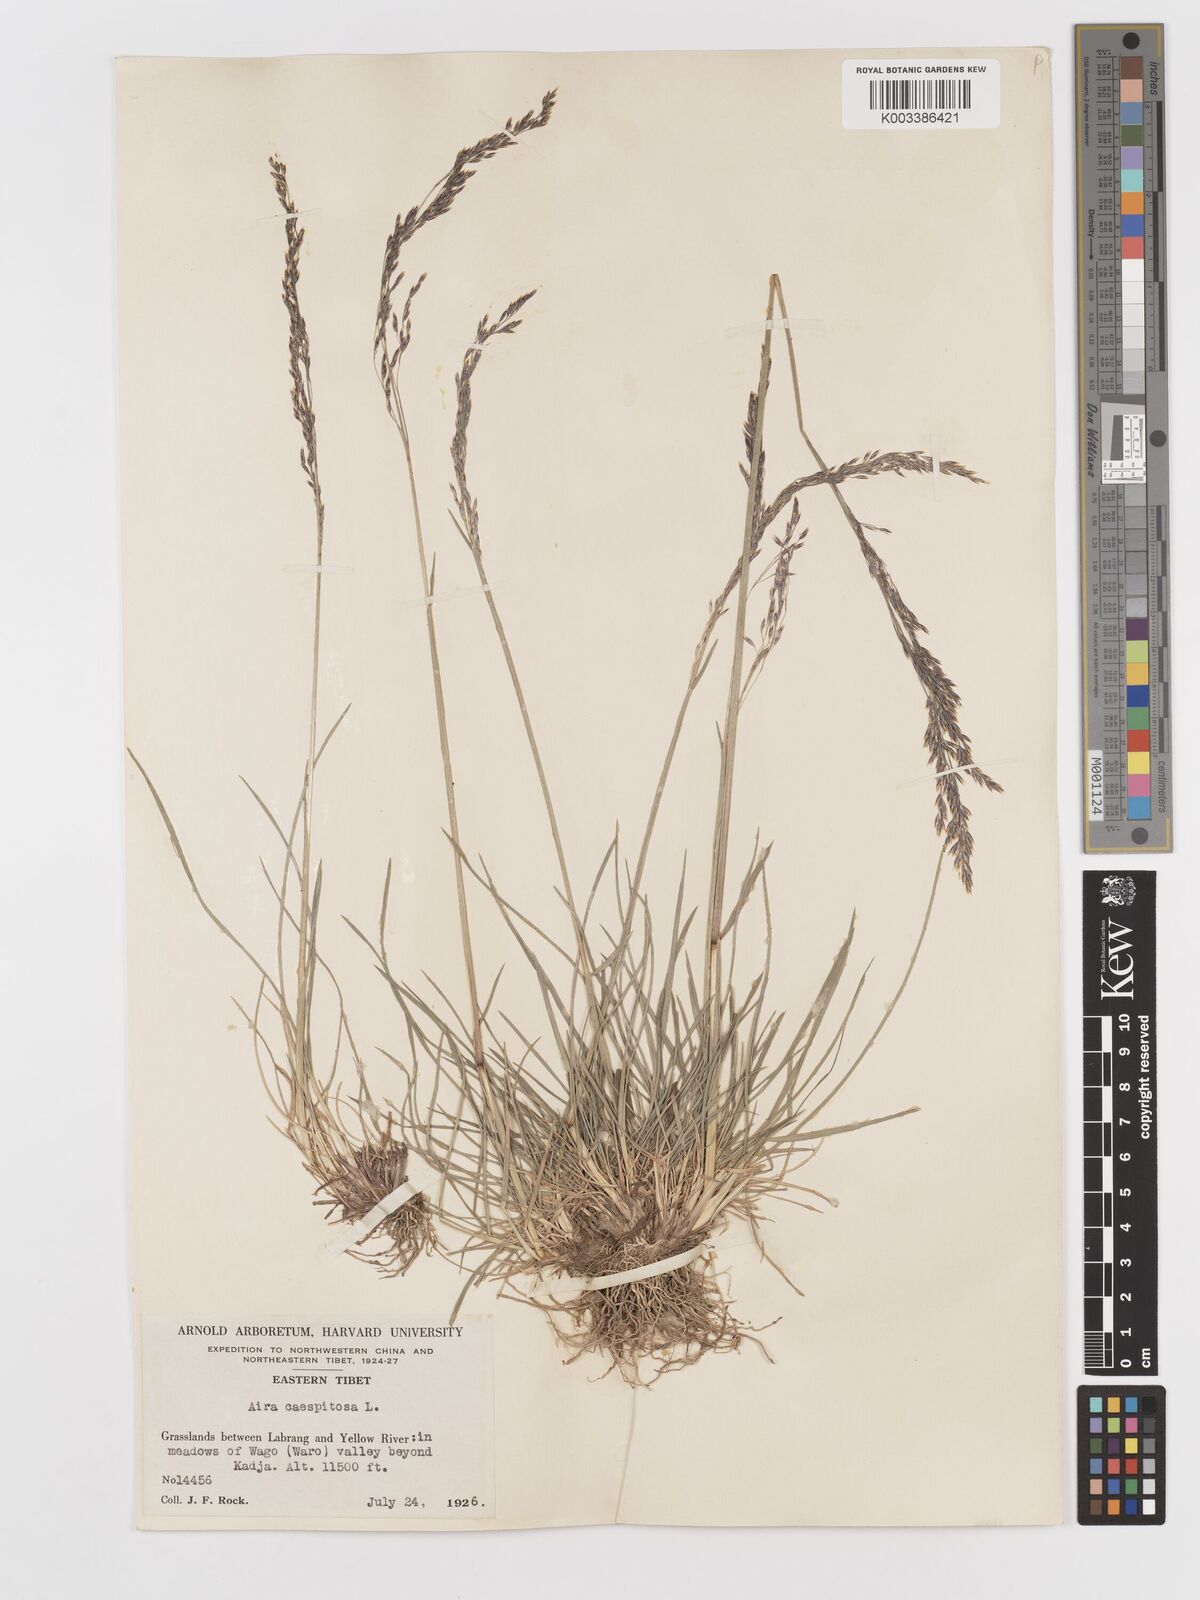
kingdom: Plantae
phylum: Tracheophyta
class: Liliopsida
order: Poales
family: Poaceae
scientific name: Poaceae
